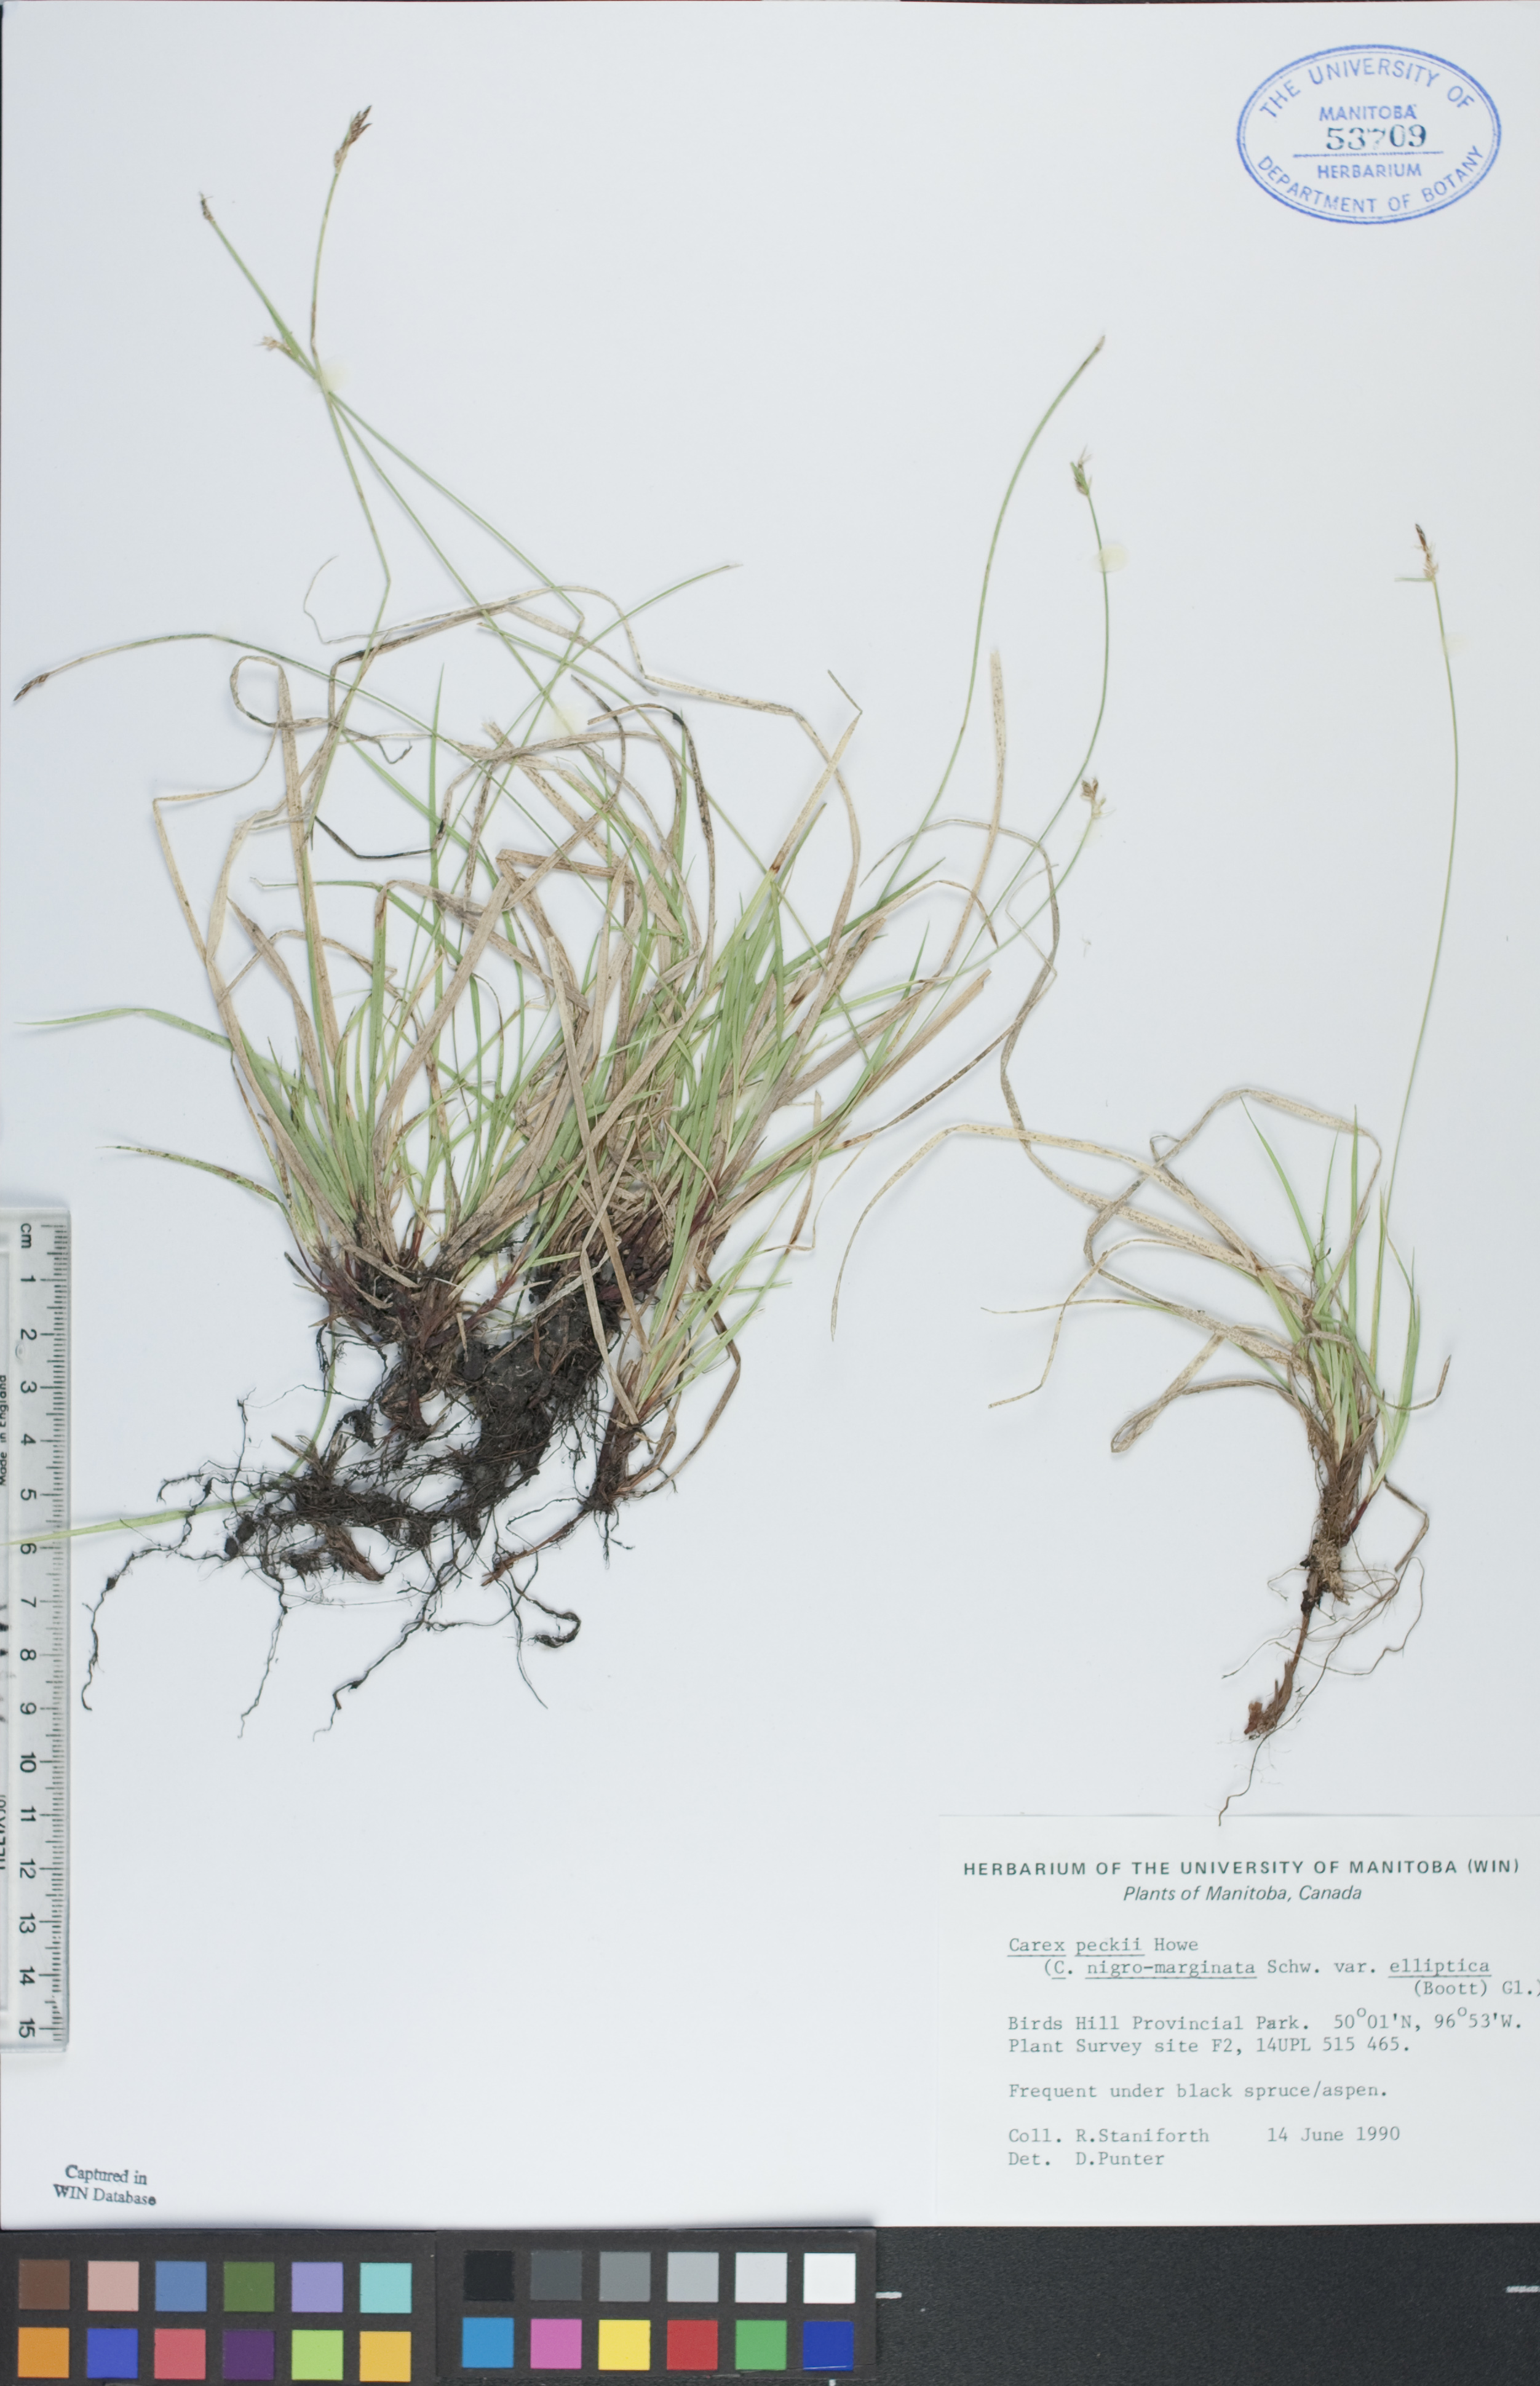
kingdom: Plantae
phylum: Tracheophyta
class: Liliopsida
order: Poales
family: Cyperaceae
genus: Carex
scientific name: Carex peckii
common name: Peck's oak sedge
